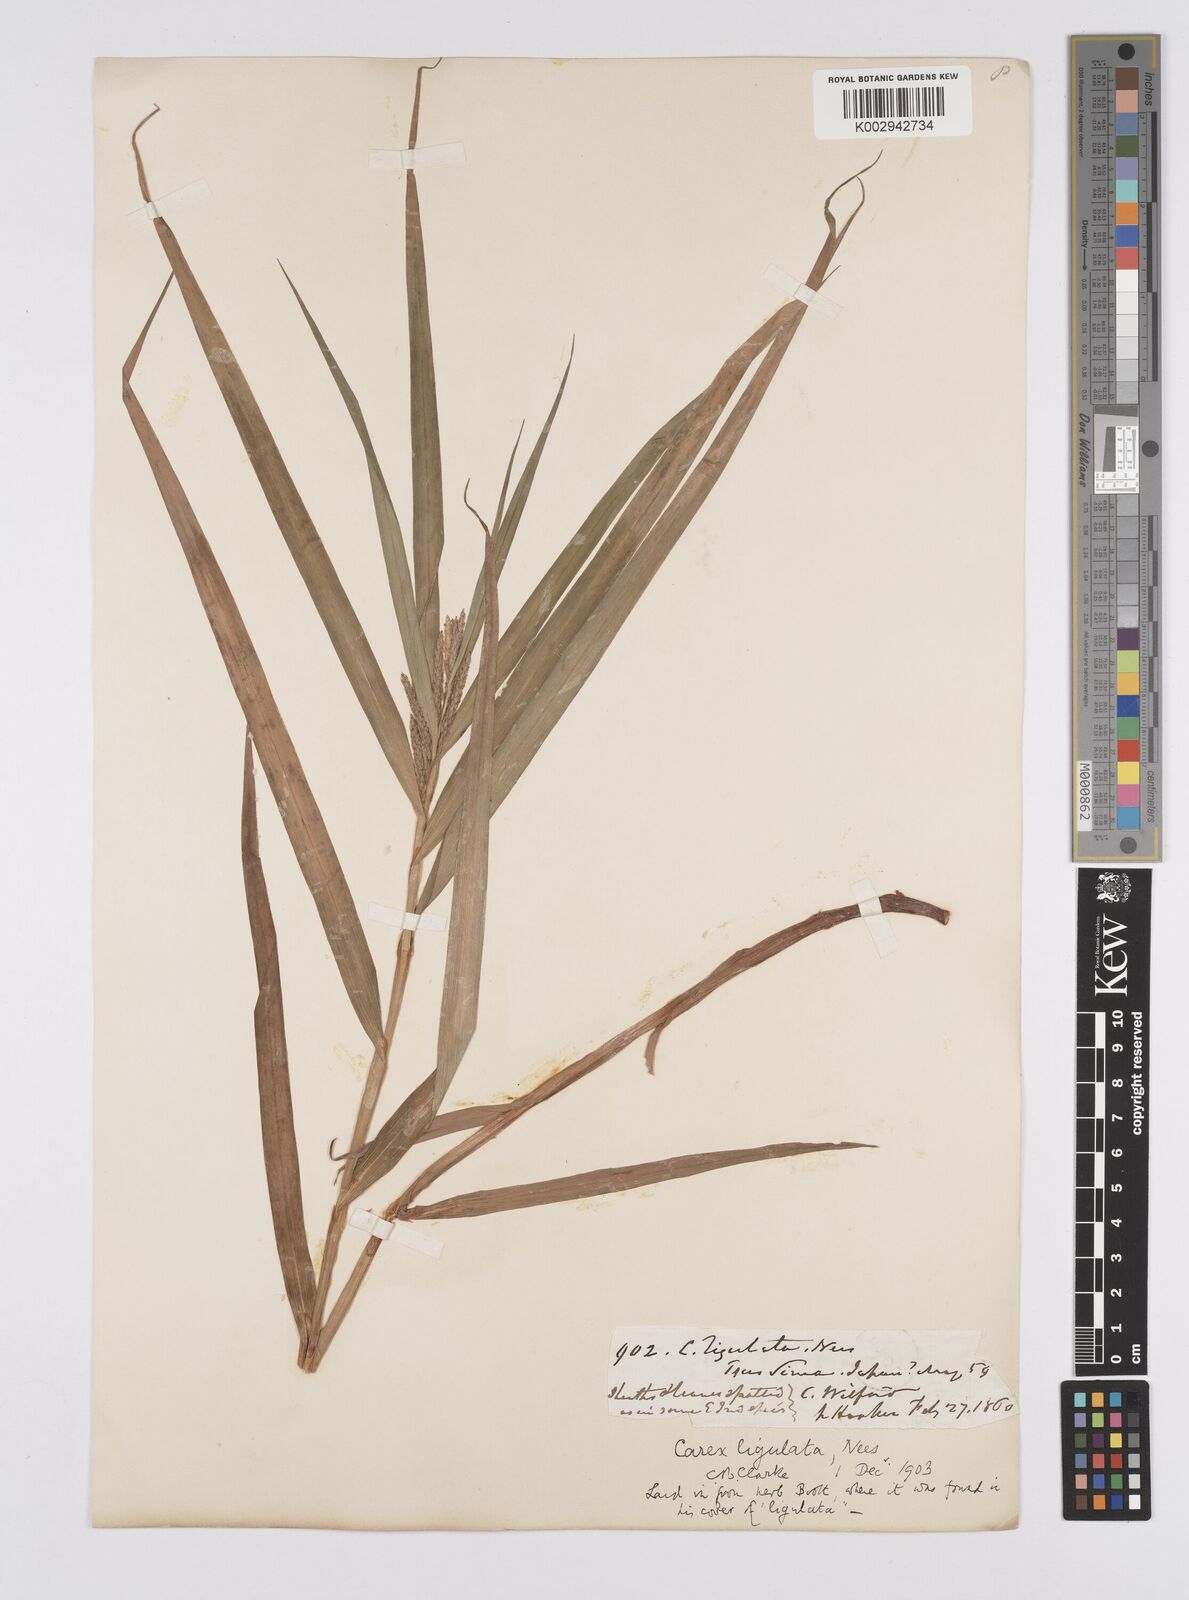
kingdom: Plantae
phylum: Tracheophyta
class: Liliopsida
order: Poales
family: Cyperaceae
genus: Carex
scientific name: Carex ligulata
